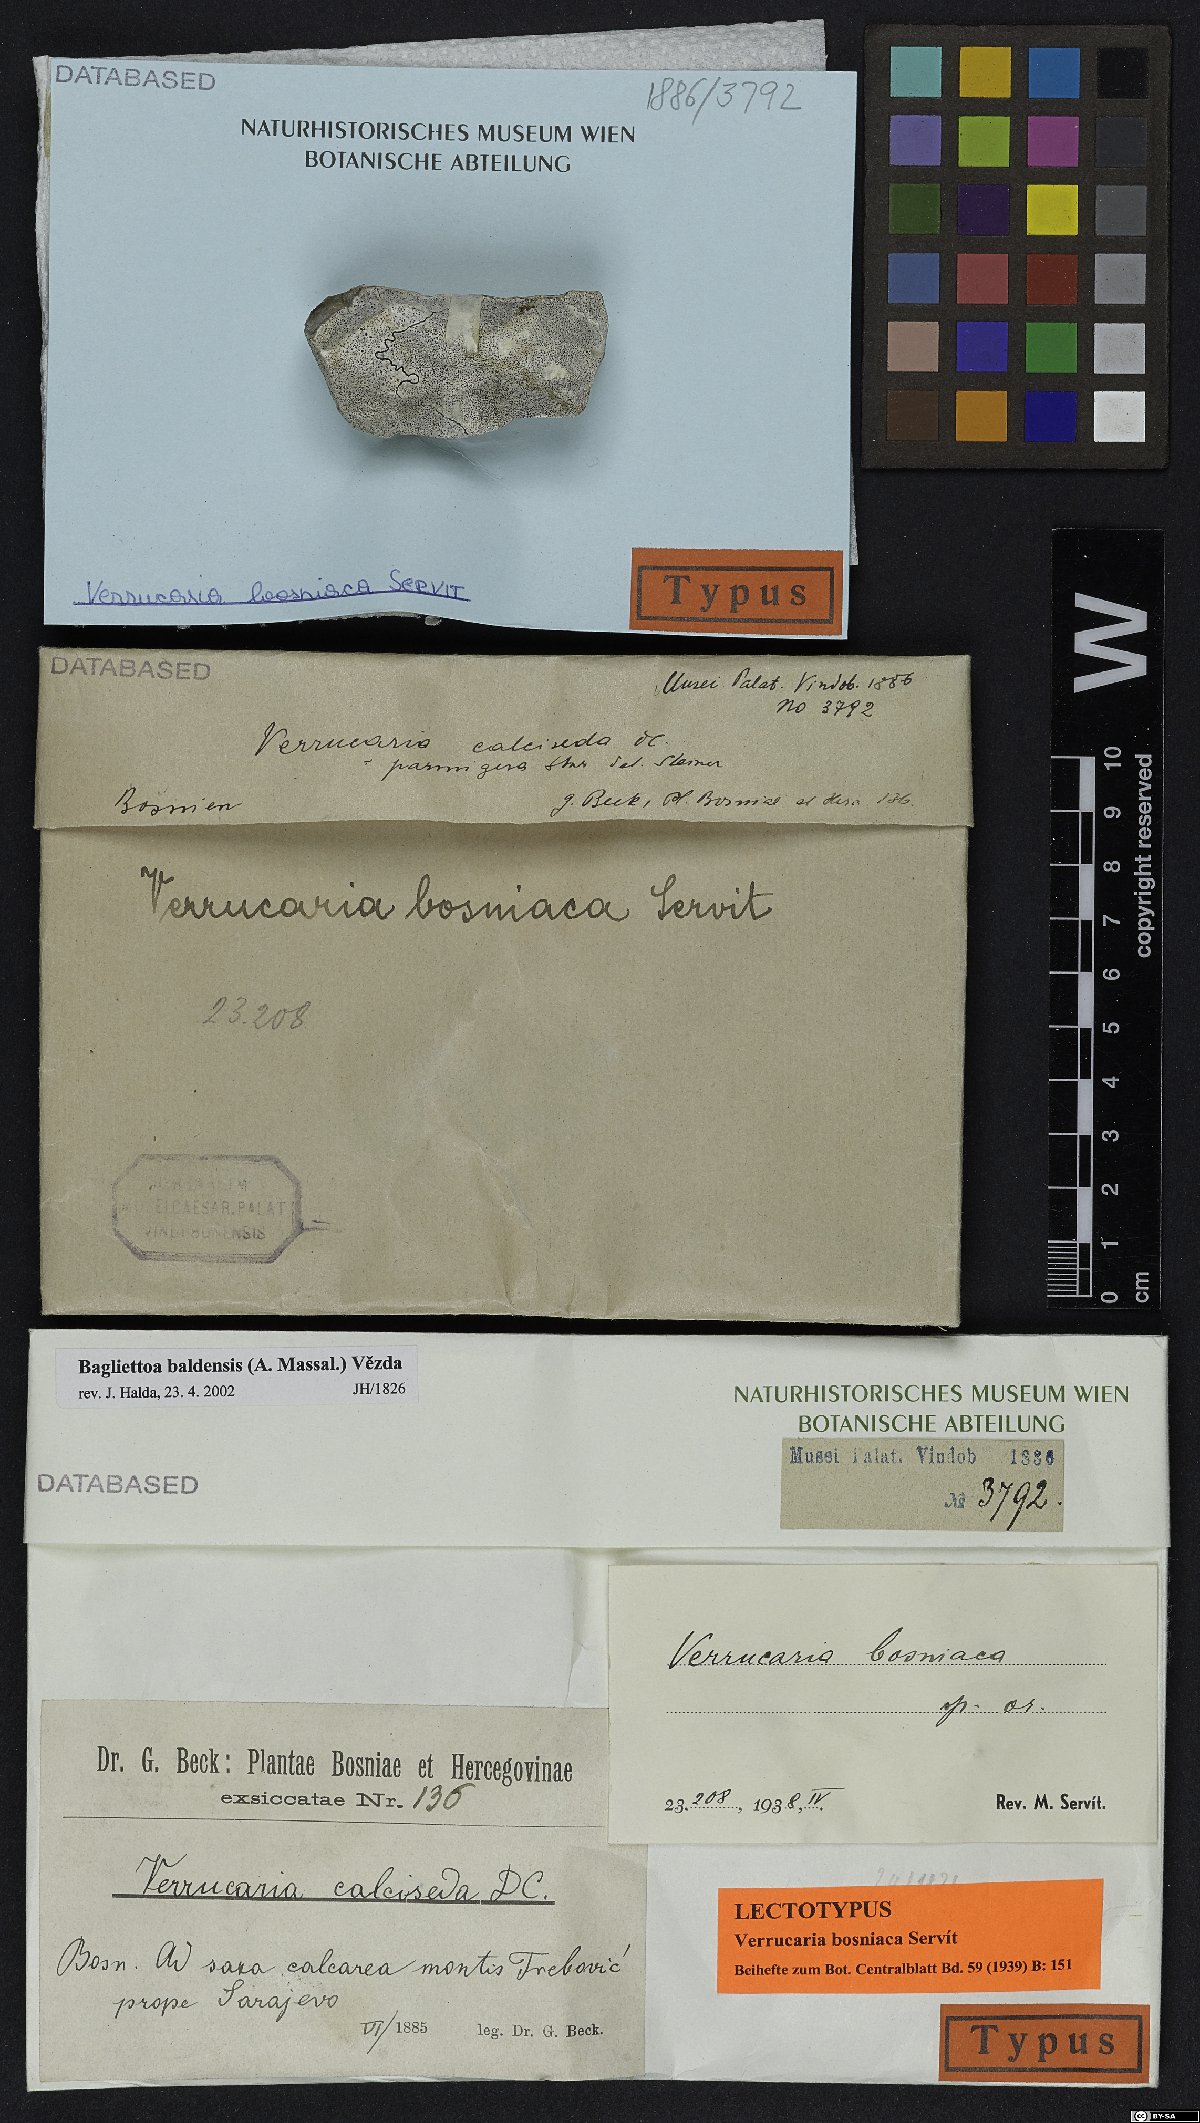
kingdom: Fungi
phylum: Ascomycota
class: Eurotiomycetes
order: Verrucariales
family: Verrucariaceae
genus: Bagliettoa
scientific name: Bagliettoa limborioides
